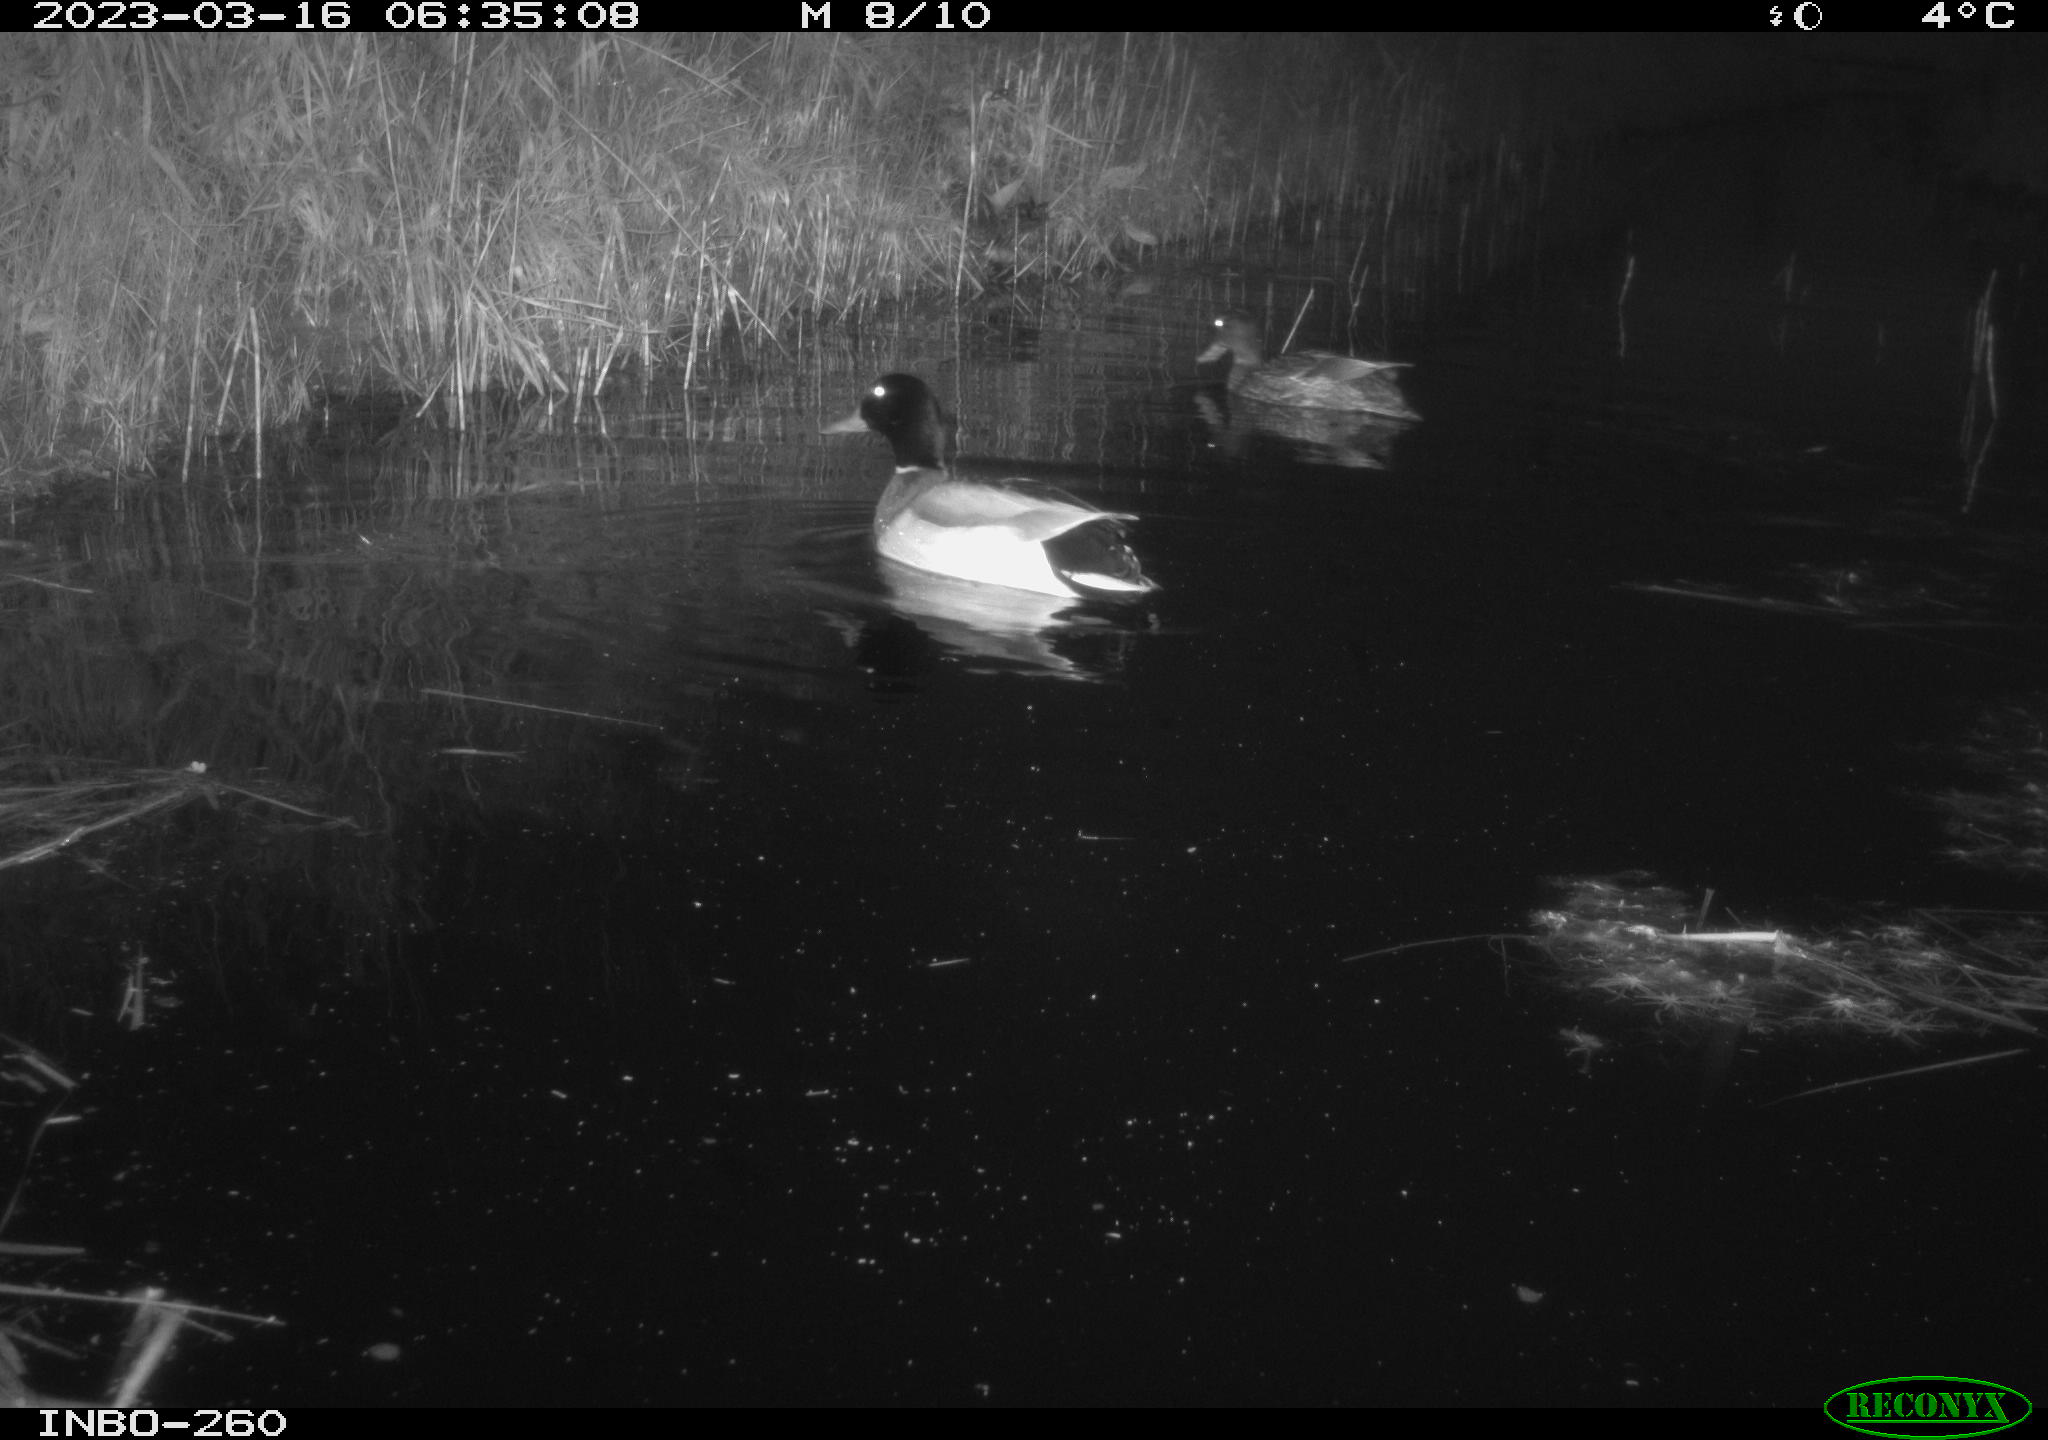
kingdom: Animalia
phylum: Chordata
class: Aves
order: Anseriformes
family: Anatidae
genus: Anas
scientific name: Anas
